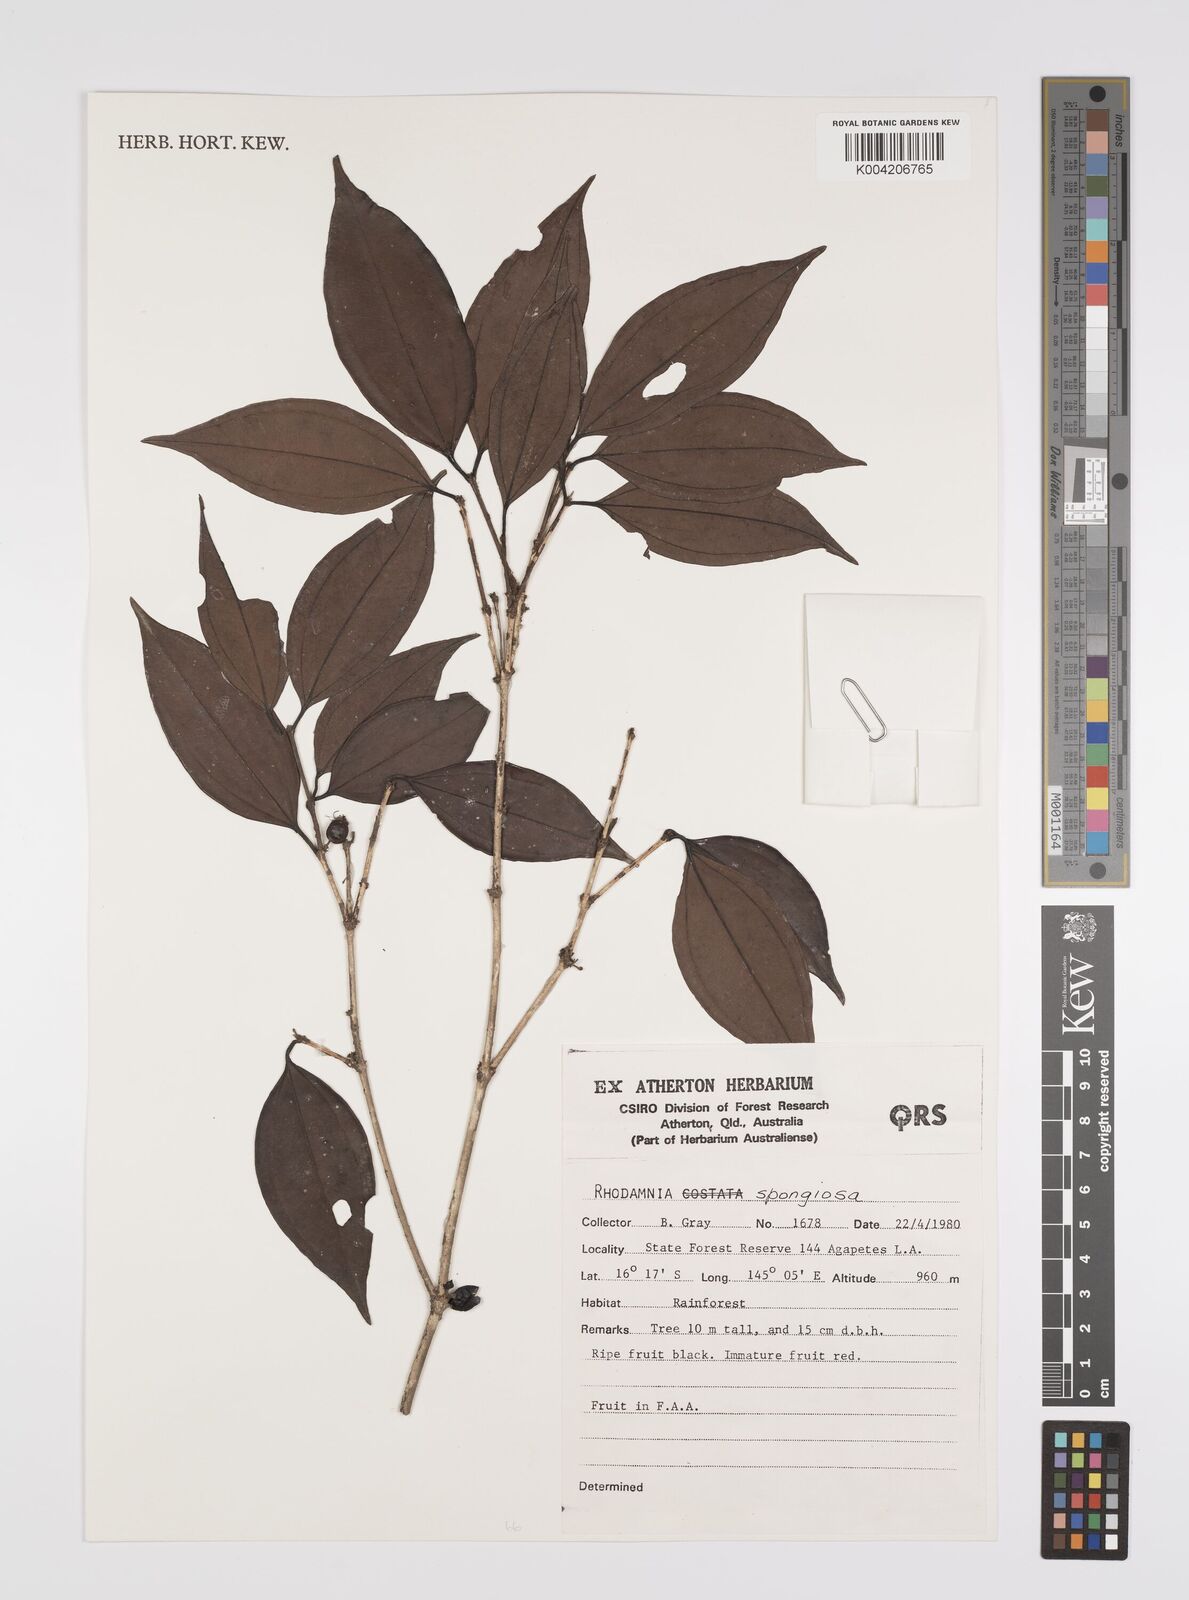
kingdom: Plantae
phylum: Tracheophyta
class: Magnoliopsida
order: Myrtales
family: Myrtaceae
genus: Rhodamnia
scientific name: Rhodamnia glauca
